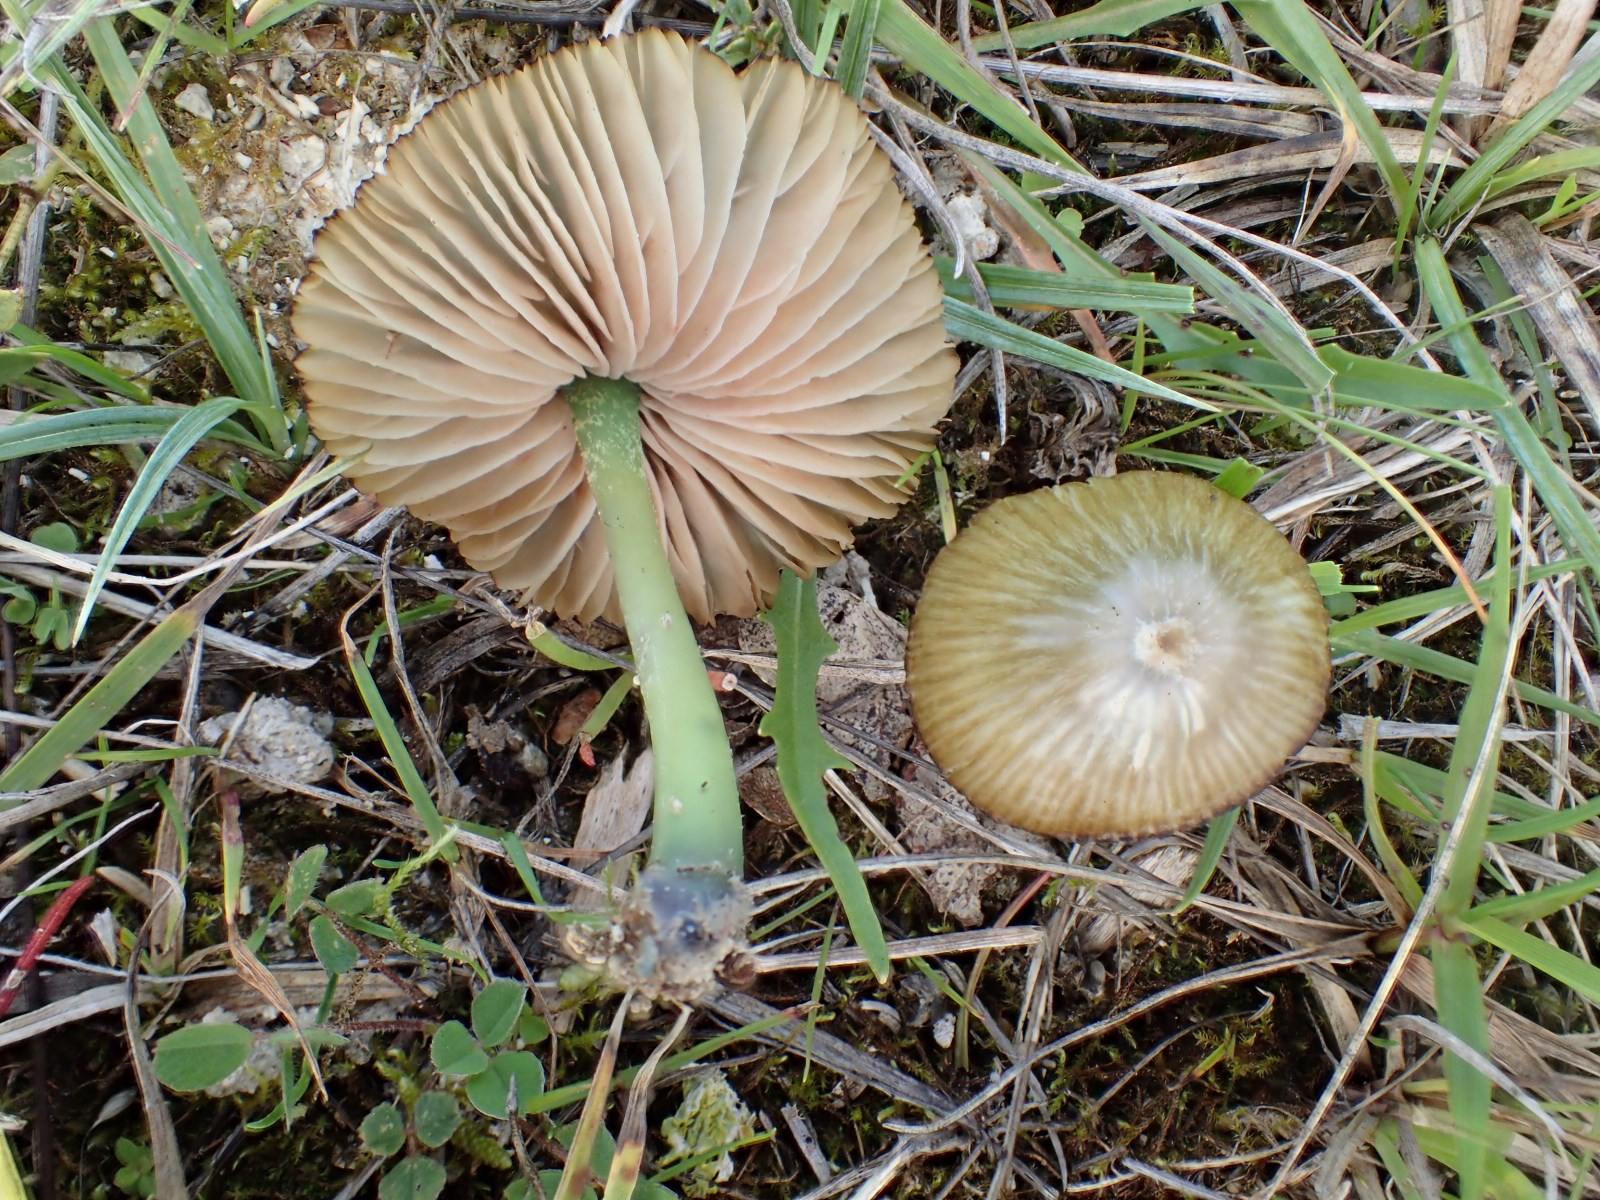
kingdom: Fungi
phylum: Basidiomycota
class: Agaricomycetes
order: Agaricales
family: Entolomataceae
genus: Entoloma
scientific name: Entoloma incanum
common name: grøngul rødblad
